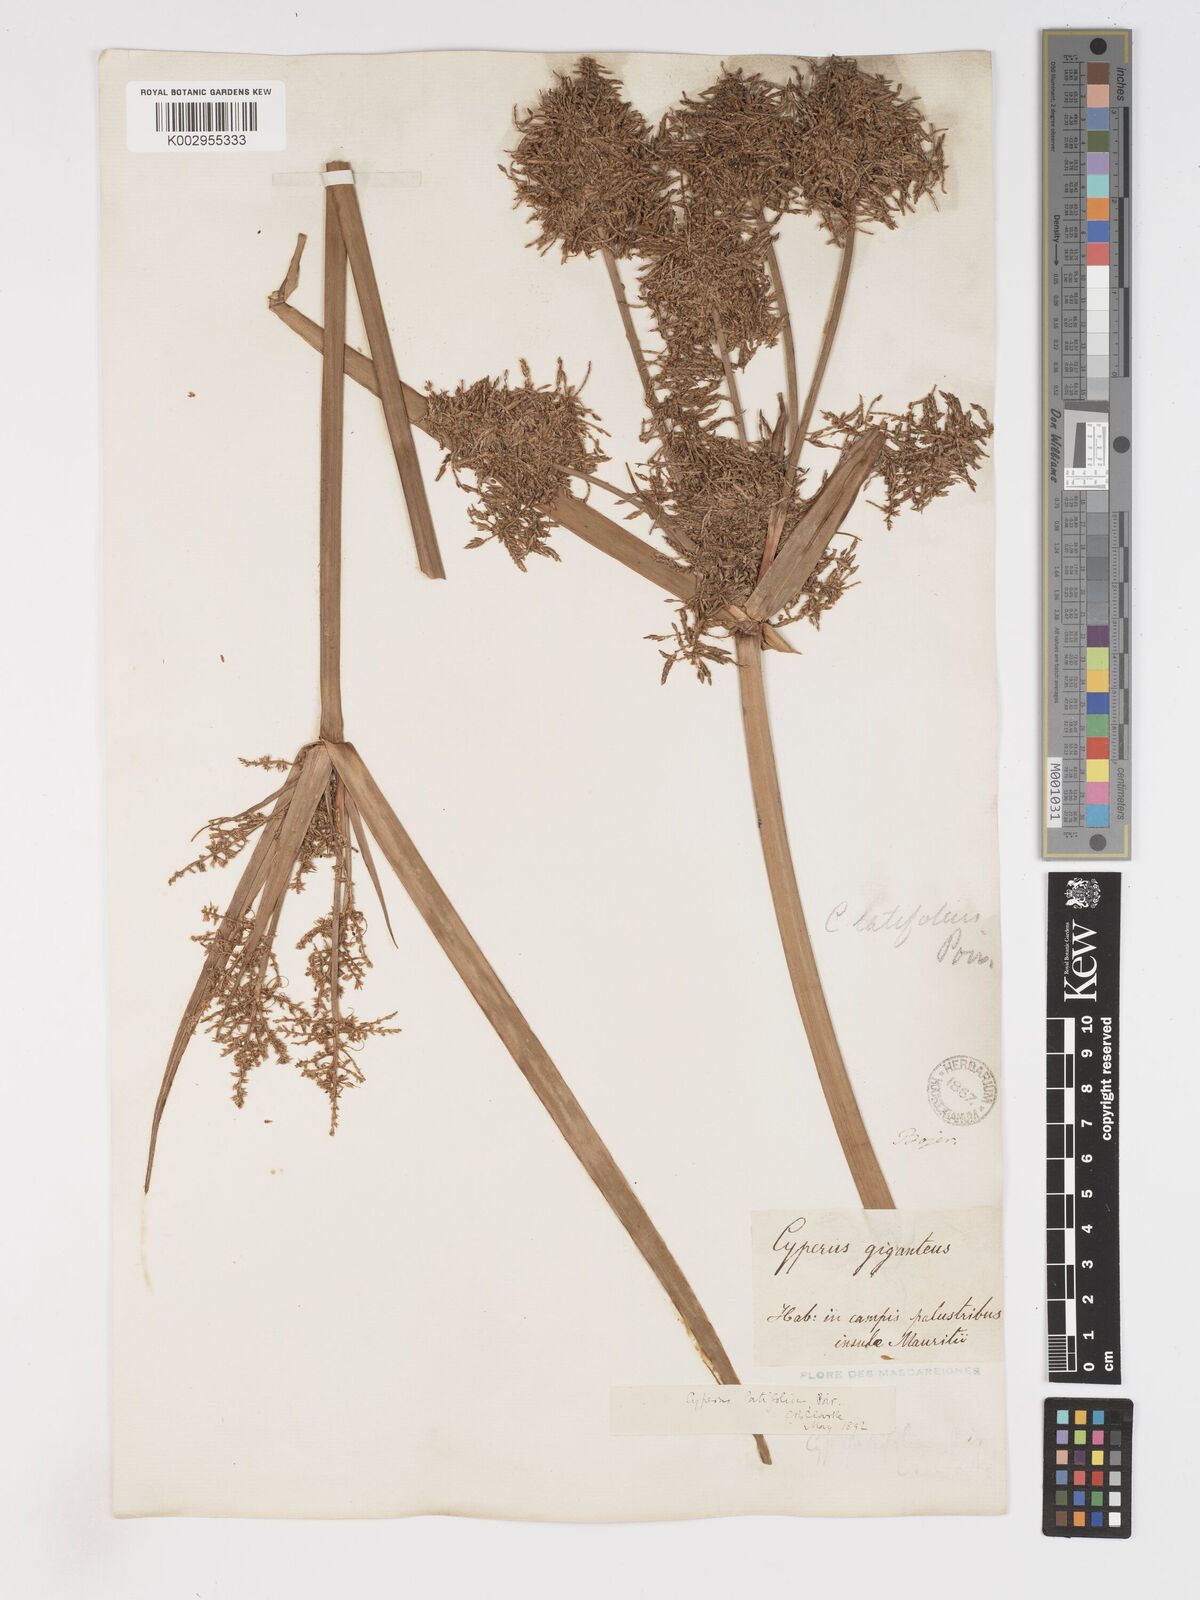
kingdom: Plantae
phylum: Tracheophyta
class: Liliopsida
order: Poales
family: Cyperaceae
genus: Cyperus
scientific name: Cyperus latifolius
